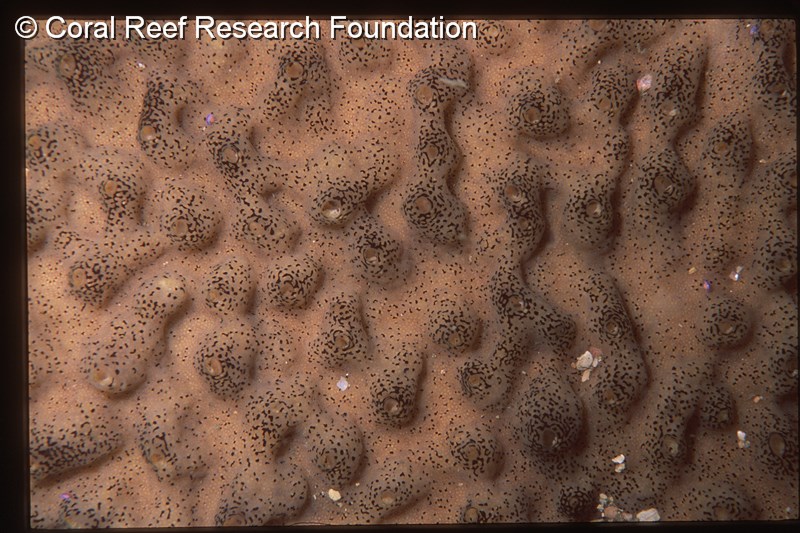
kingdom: Animalia
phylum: Chordata
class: Ascidiacea
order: Aplousobranchia
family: Didemnidae
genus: Didemnum
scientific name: Didemnum
